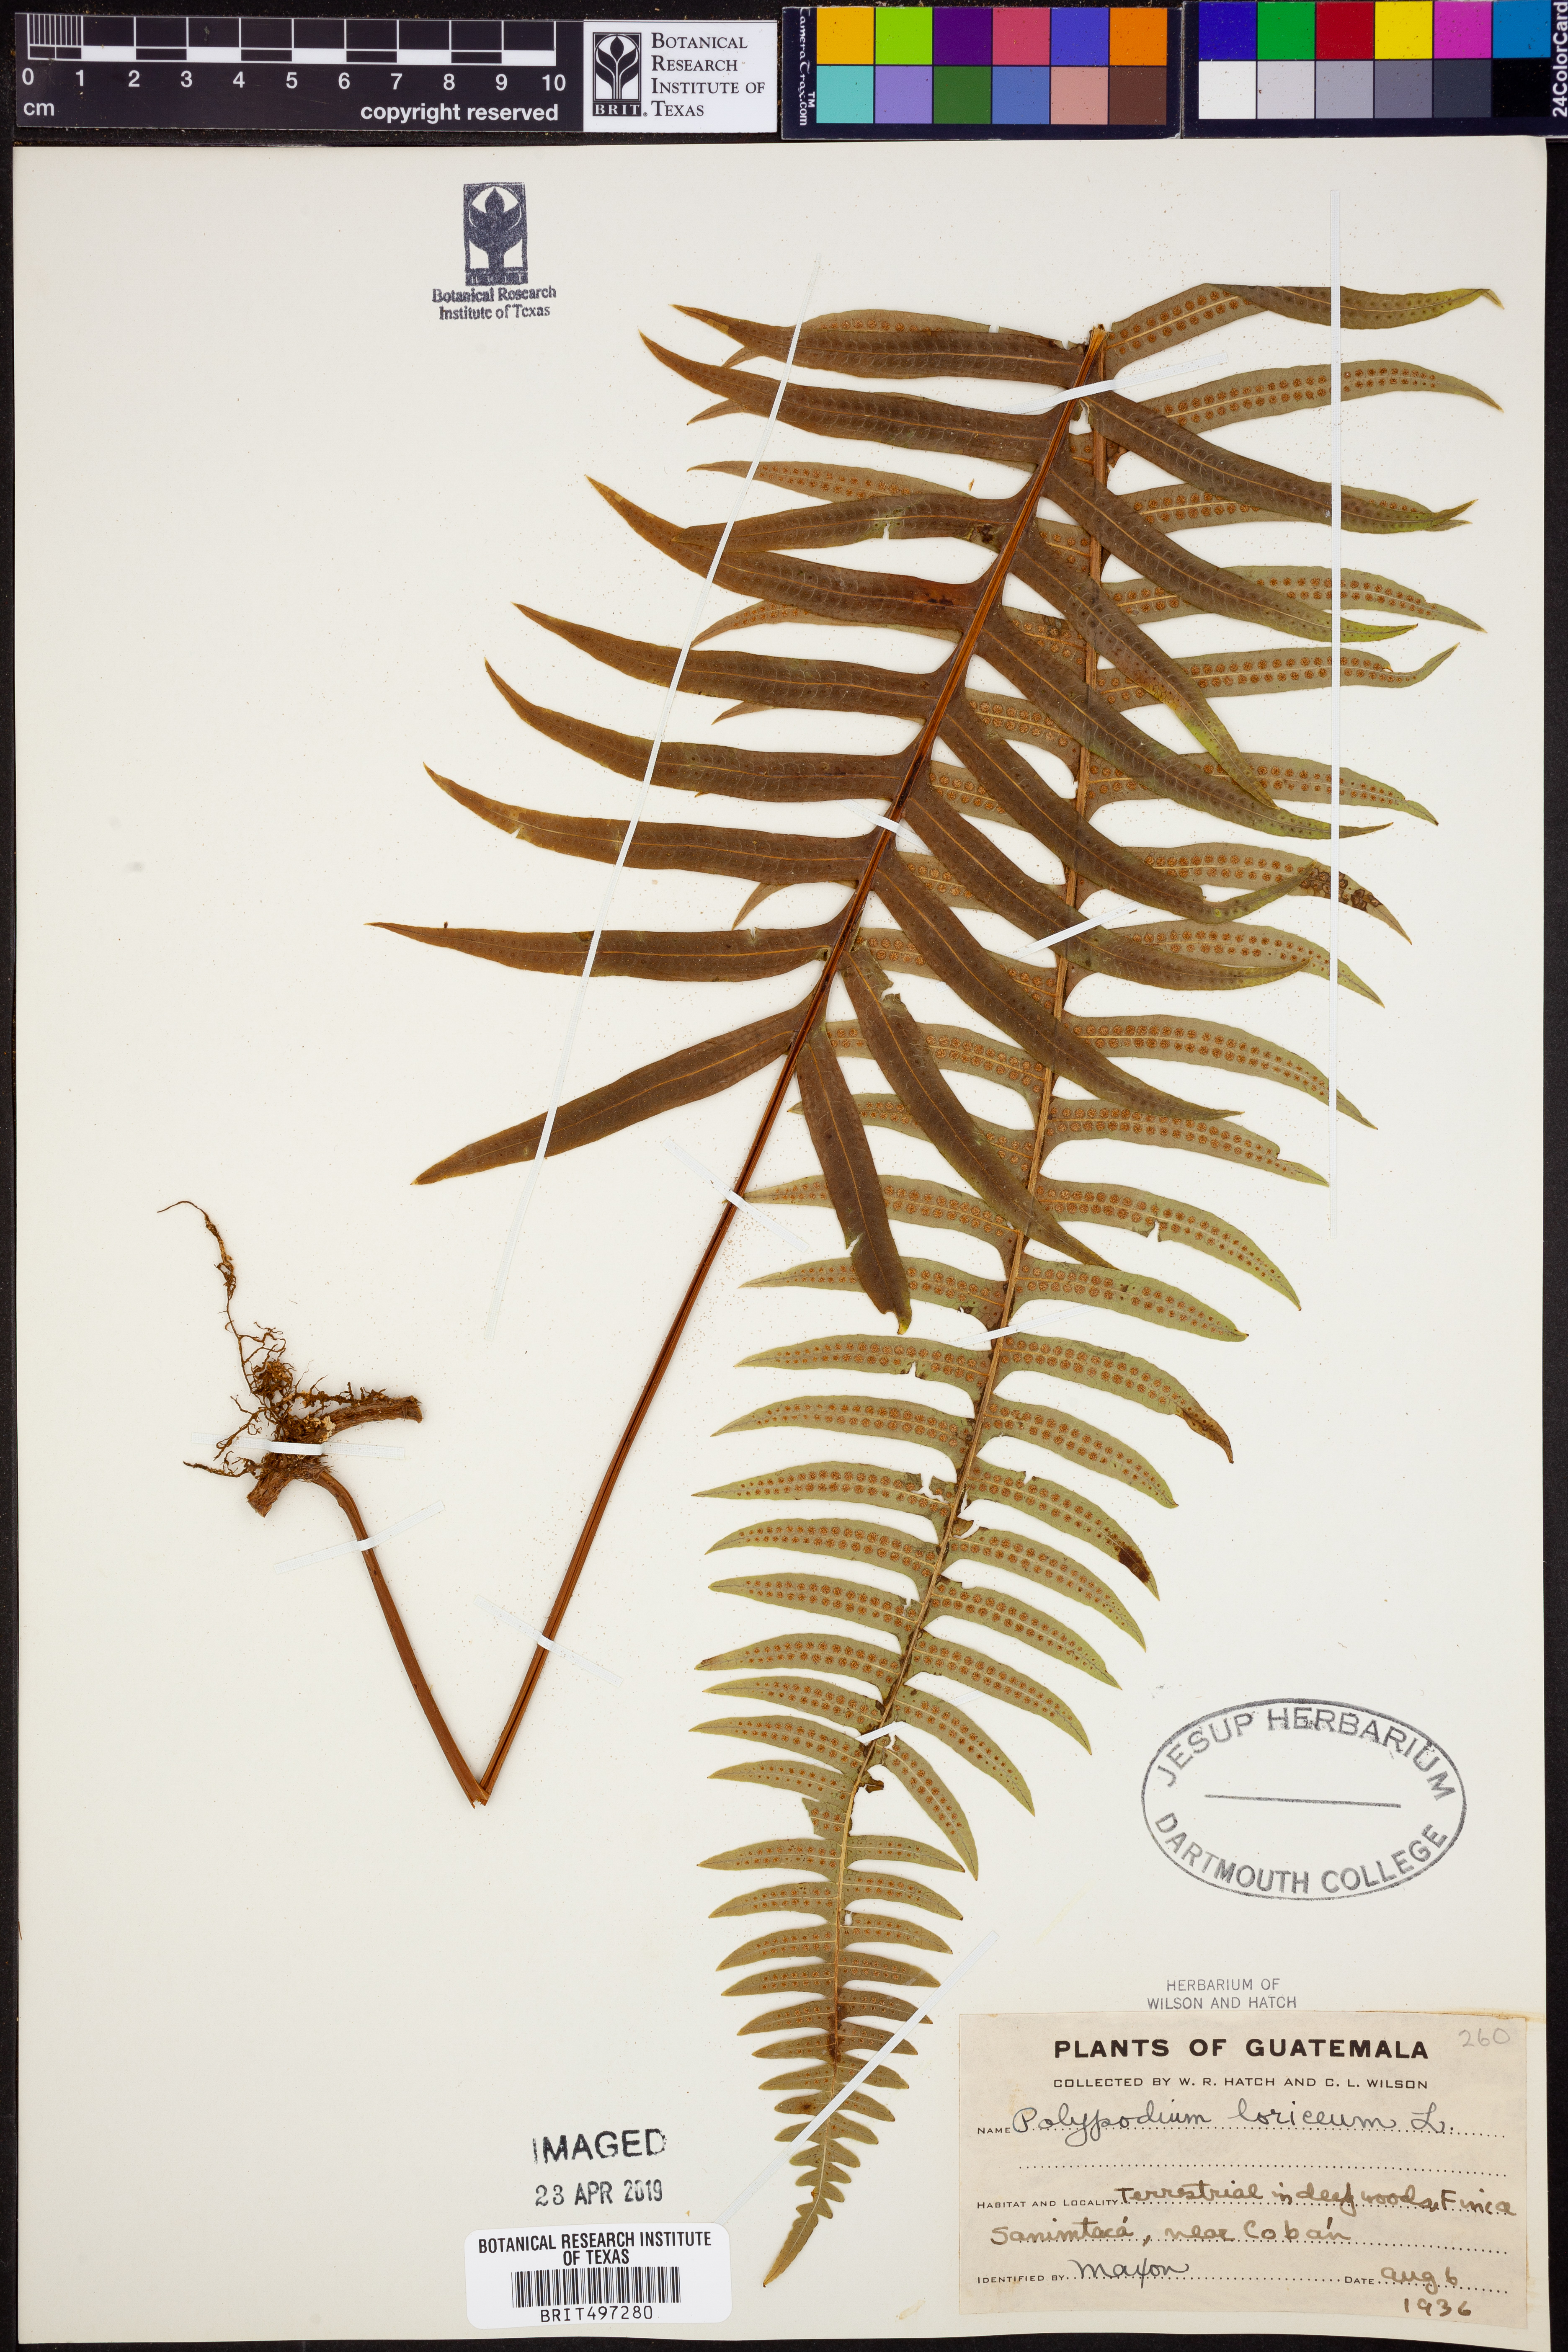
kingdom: Plantae
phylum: Tracheophyta
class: Polypodiopsida
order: Polypodiales
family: Polypodiaceae
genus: Serpocaulon
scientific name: Serpocaulon loriceum
